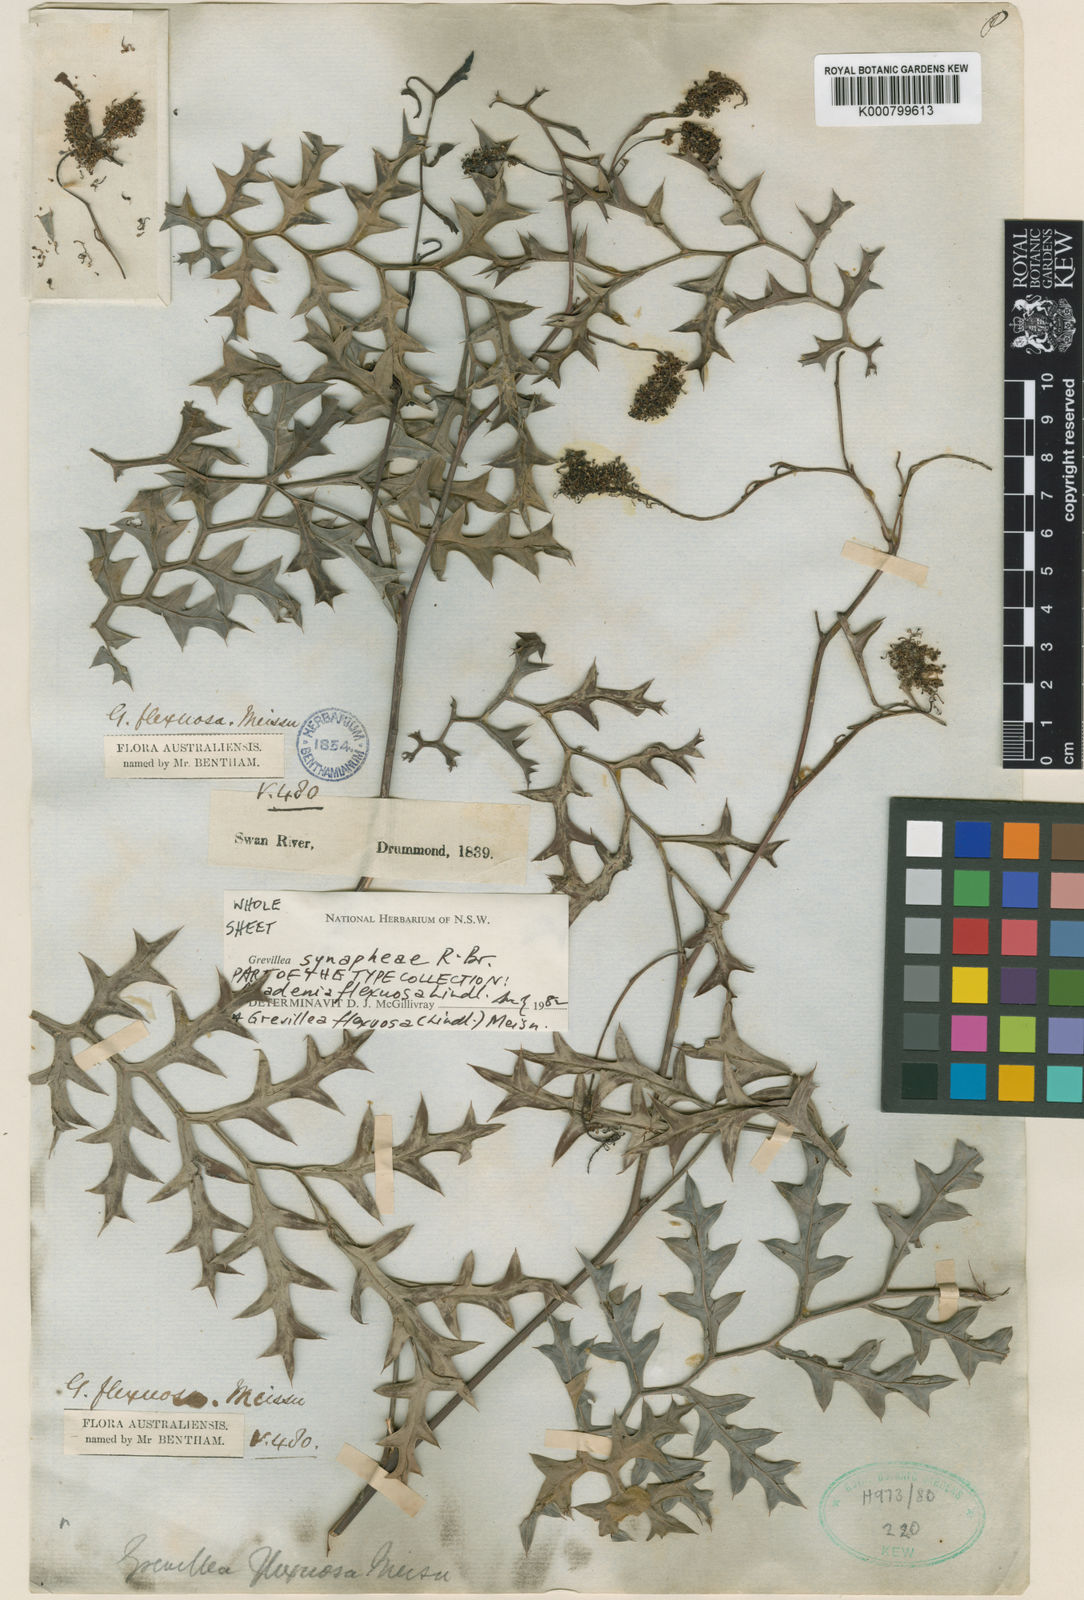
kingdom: Plantae
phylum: Tracheophyta
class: Magnoliopsida
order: Proteales
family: Proteaceae
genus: Grevillea
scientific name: Grevillea synaphea
